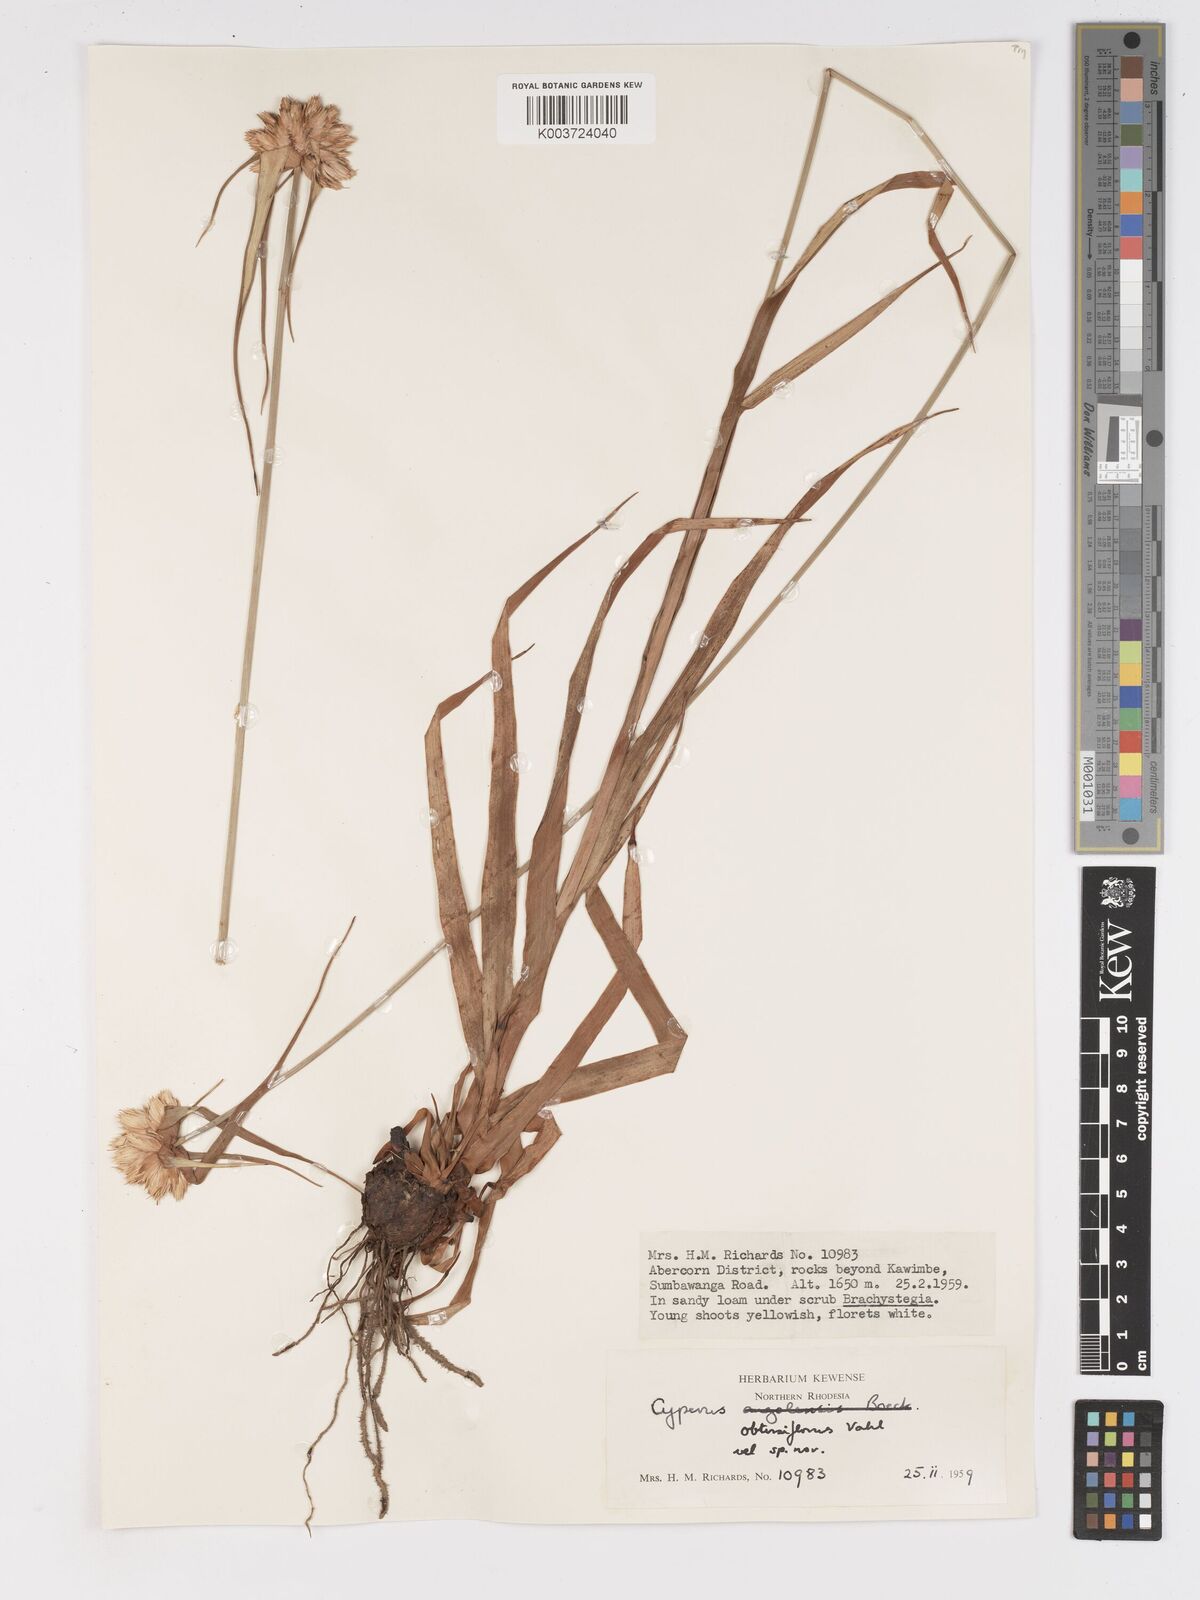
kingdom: Plantae
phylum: Tracheophyta
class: Liliopsida
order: Poales
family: Cyperaceae
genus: Cyperus
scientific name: Cyperus niveus
